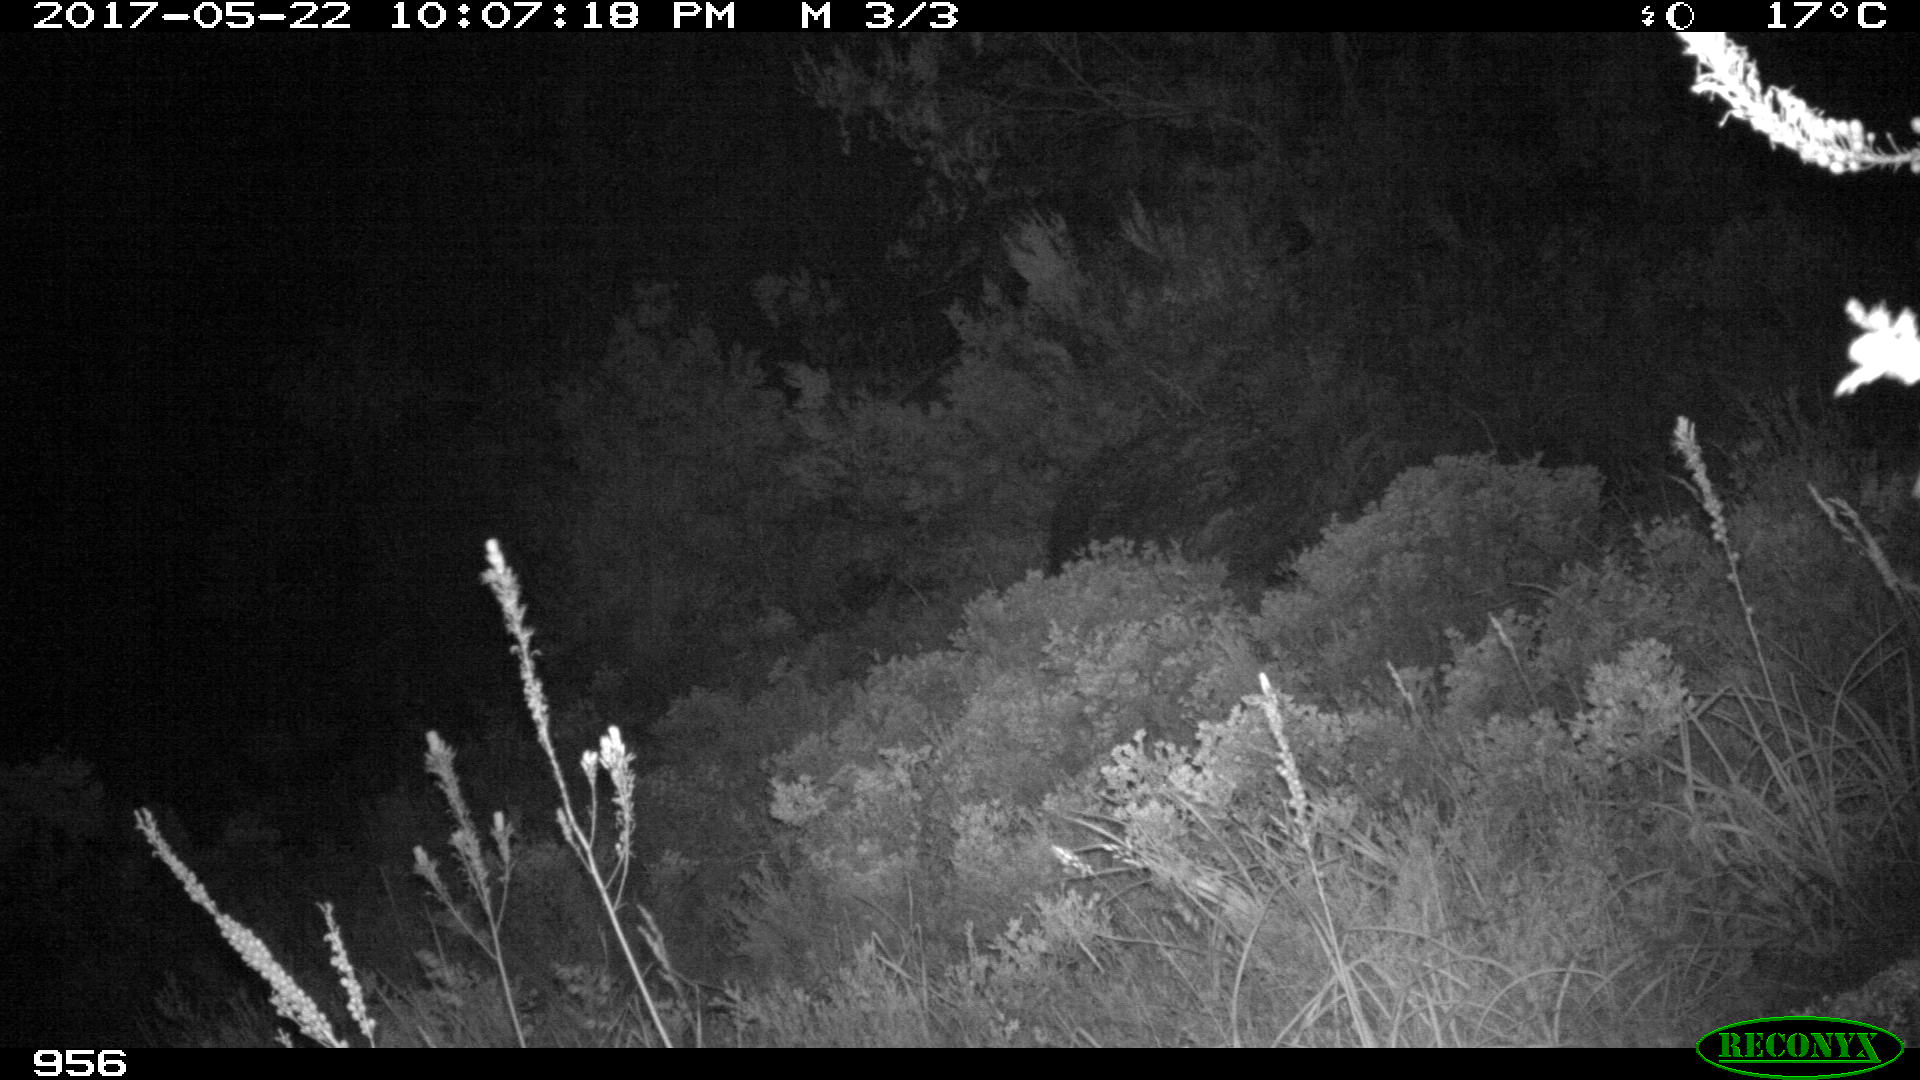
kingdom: Animalia
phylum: Chordata
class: Mammalia
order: Artiodactyla
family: Cervidae
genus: Capreolus
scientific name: Capreolus capreolus
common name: Western roe deer
